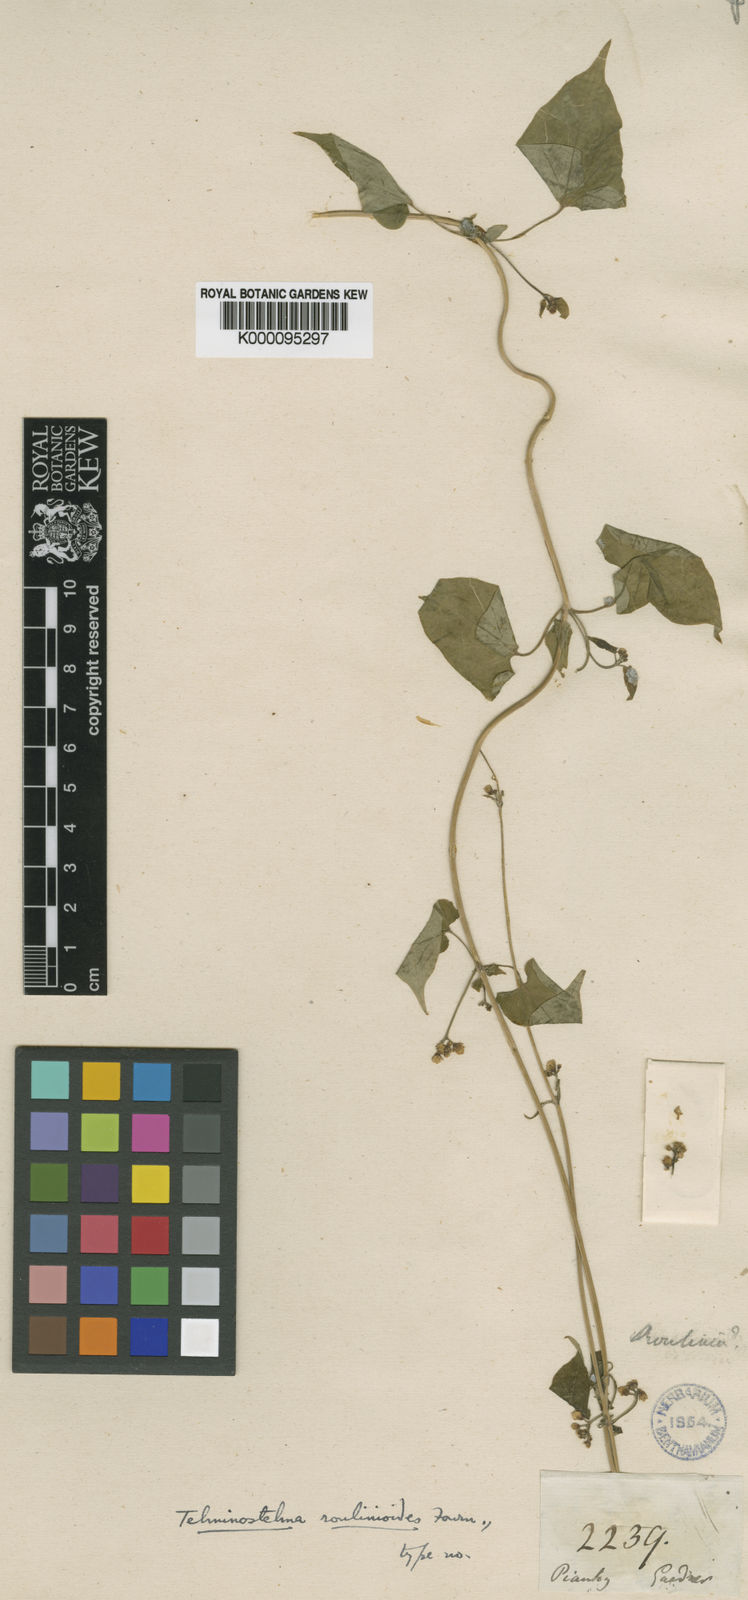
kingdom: Plantae
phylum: Tracheophyta
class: Magnoliopsida
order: Gentianales
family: Apocynaceae
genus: Cynanchum
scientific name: Cynanchum roulinioides
